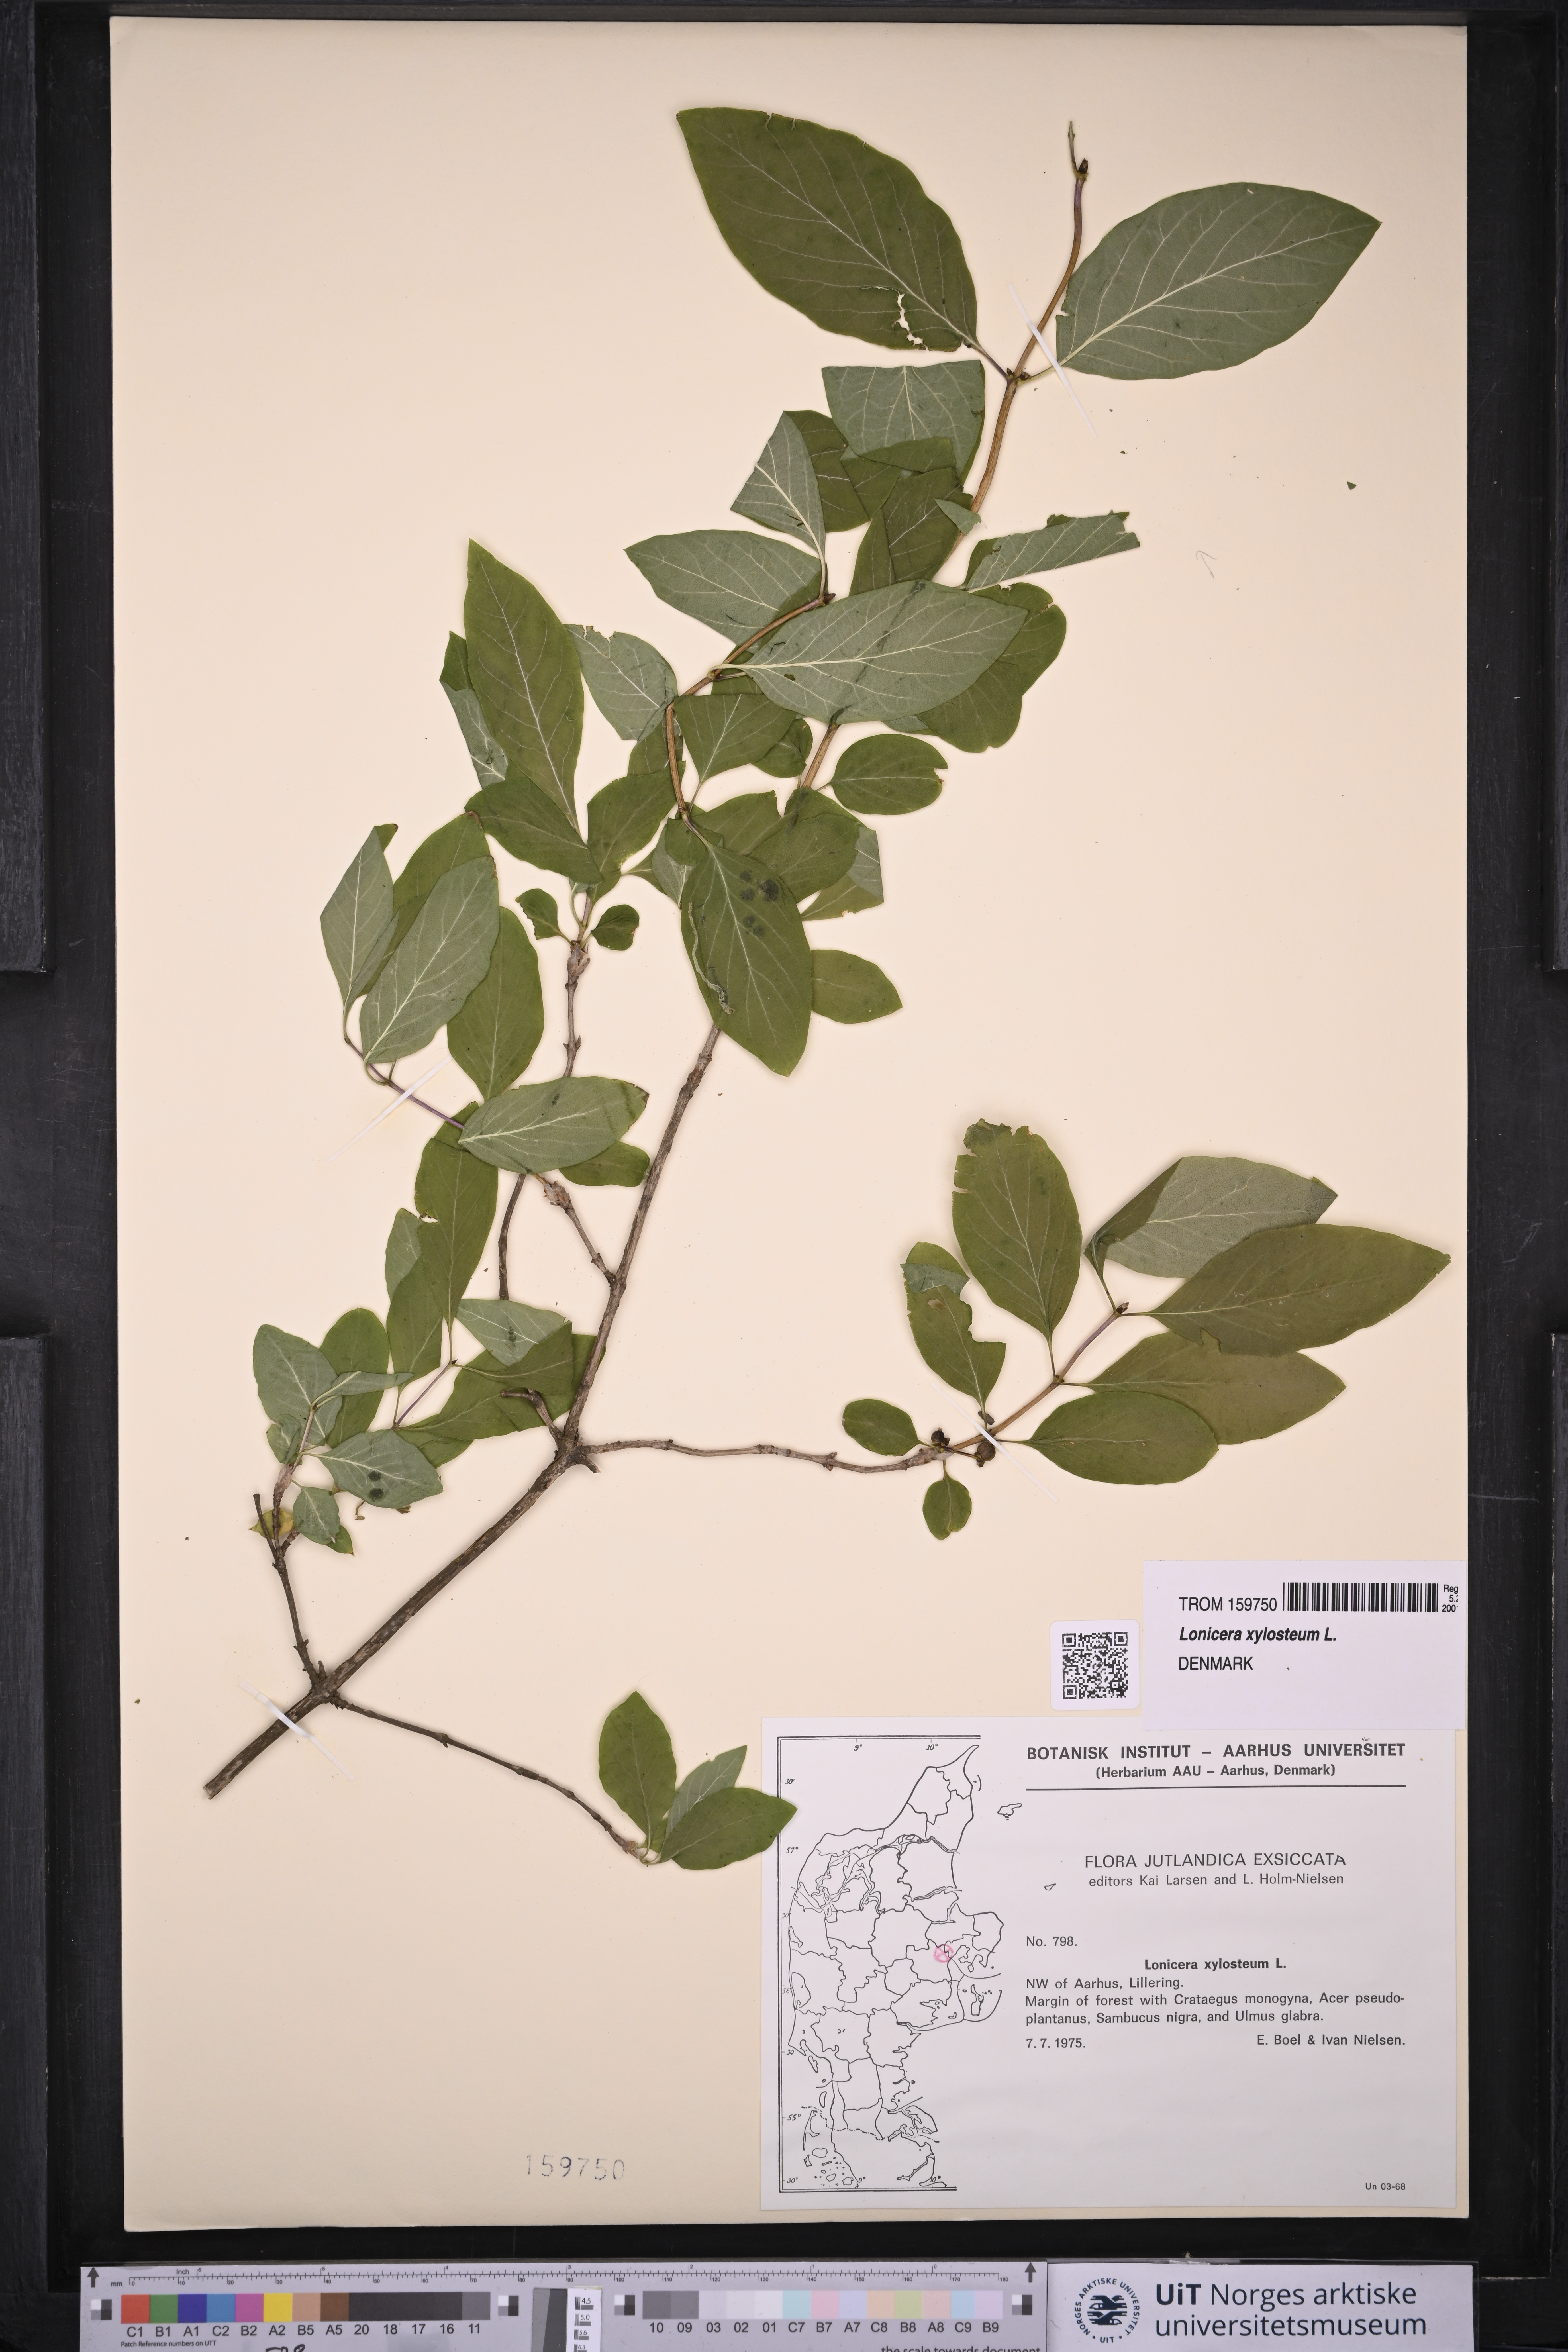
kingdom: Plantae
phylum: Tracheophyta
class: Magnoliopsida
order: Dipsacales
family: Caprifoliaceae
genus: Lonicera
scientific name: Lonicera xylosteum
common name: Fly honeysuckle
